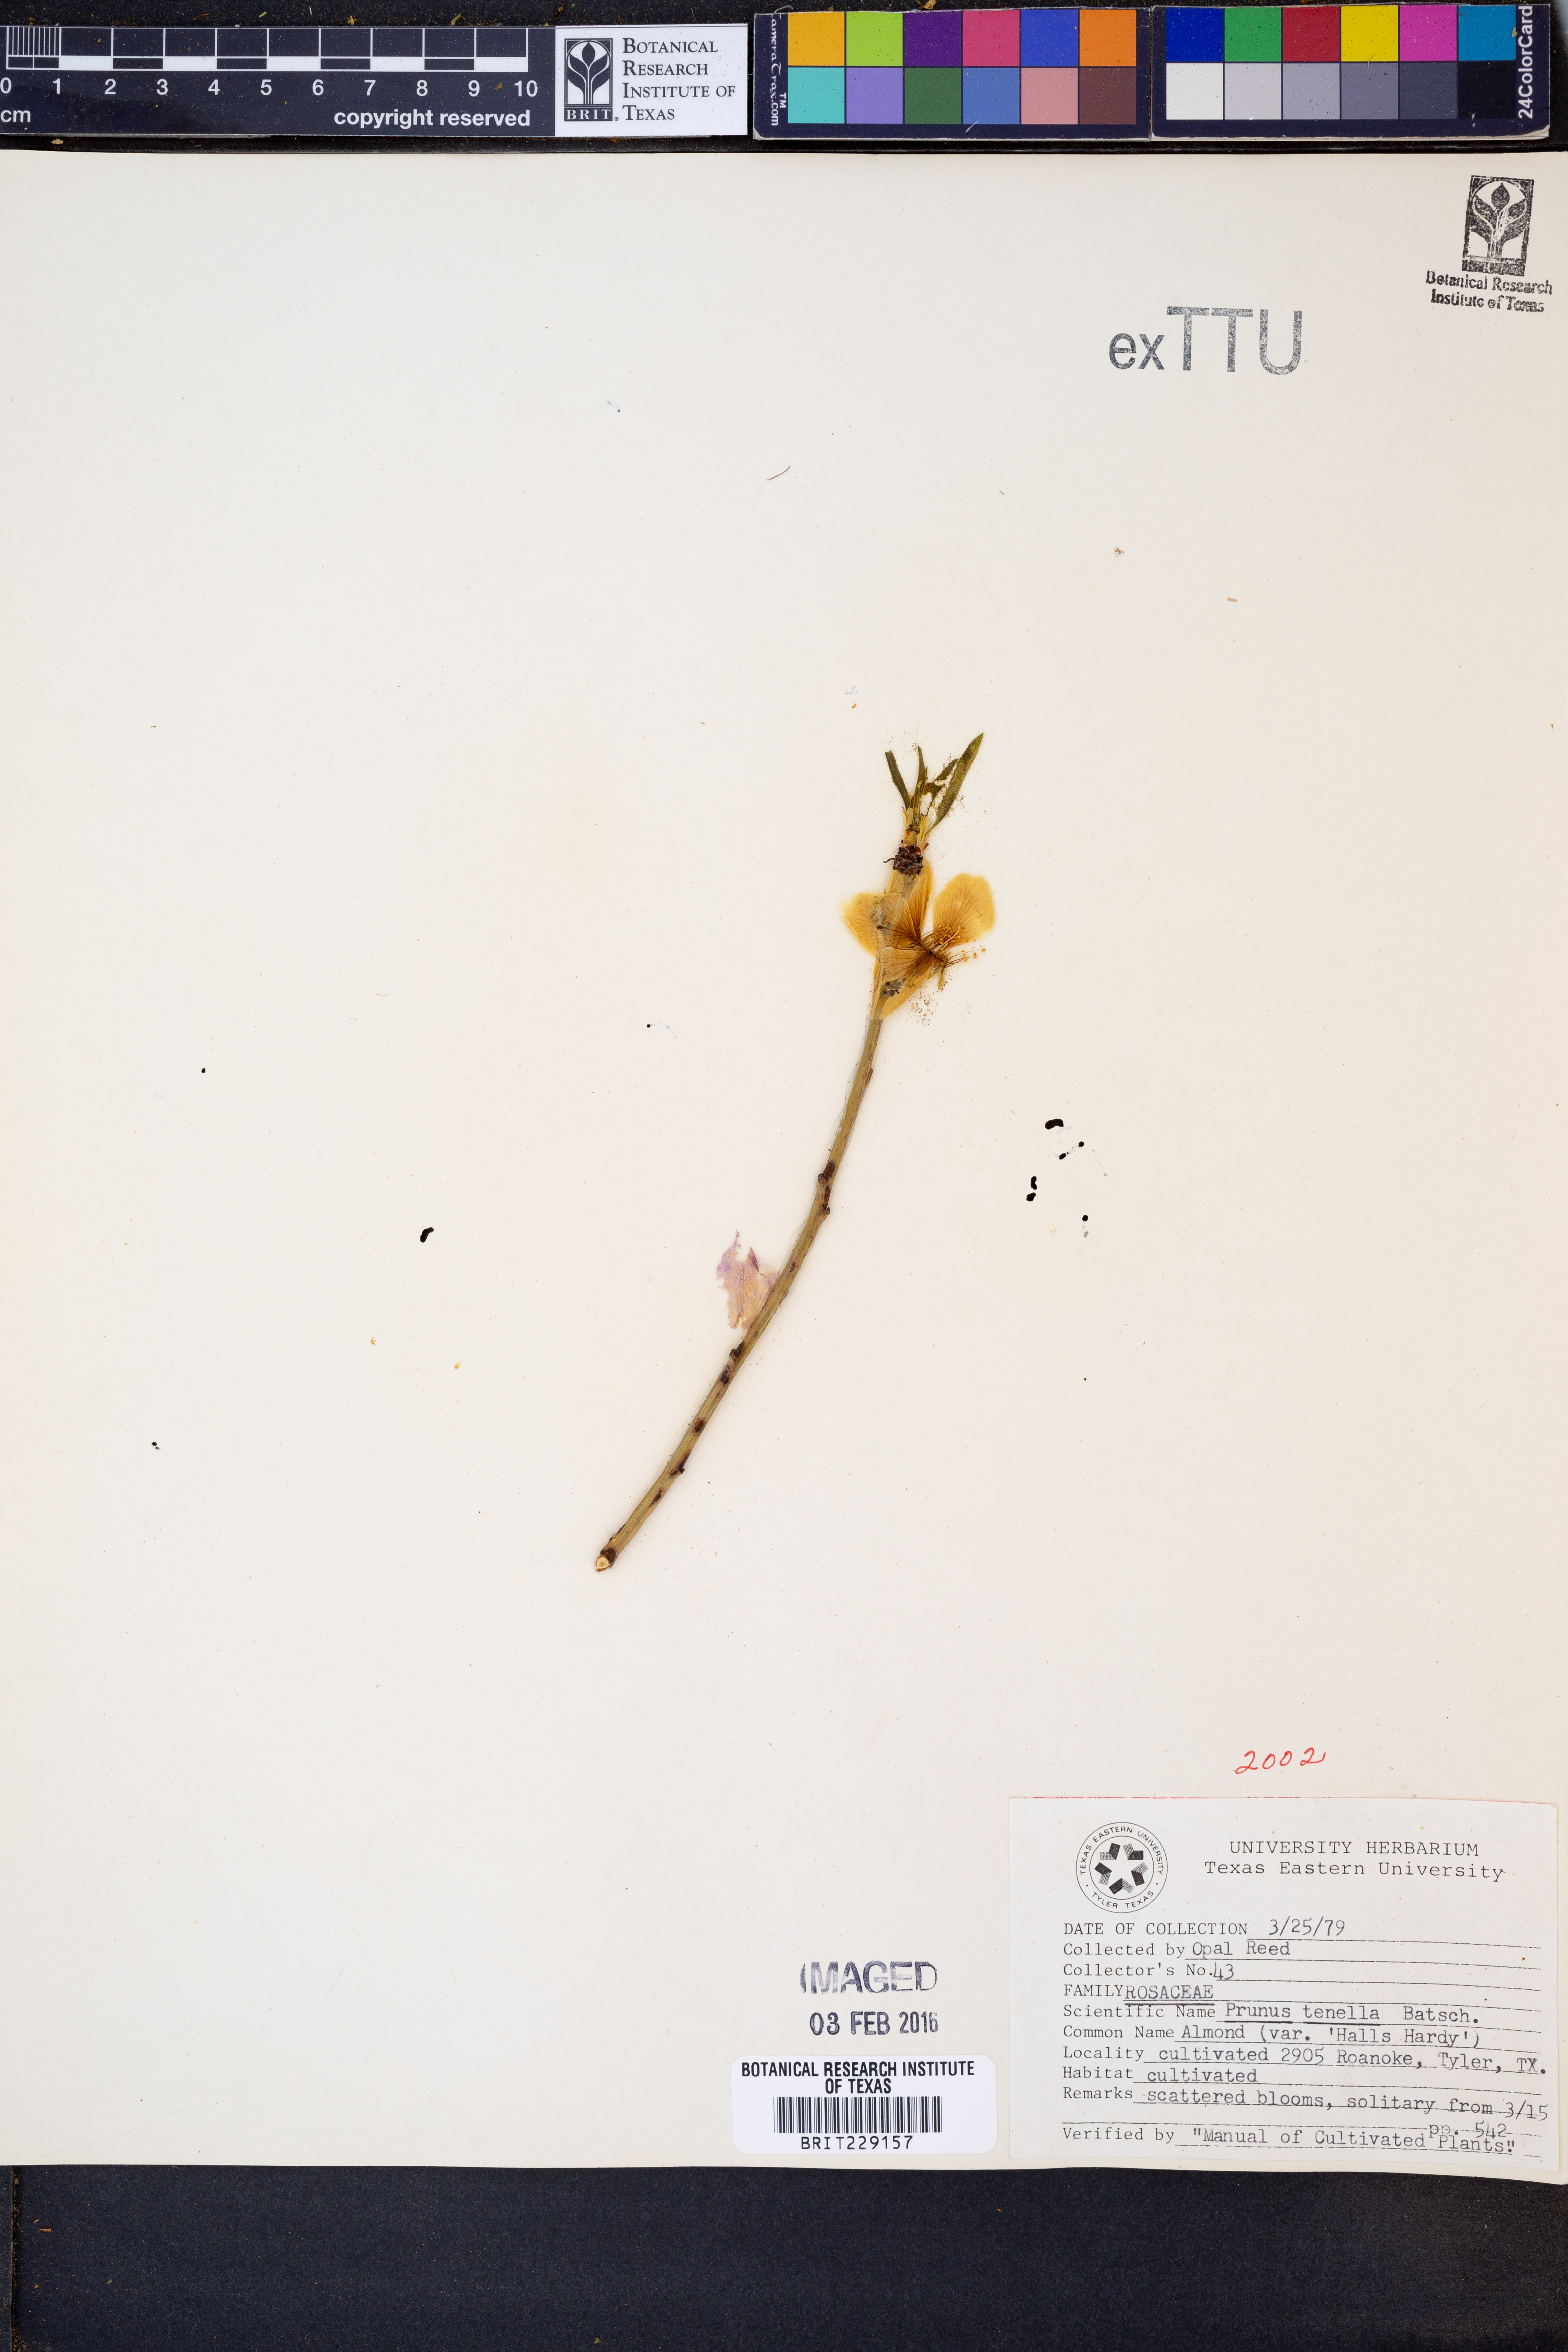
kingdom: Plantae
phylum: Tracheophyta
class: Magnoliopsida
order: Rosales
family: Rosaceae
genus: Prunus
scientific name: Prunus tenella
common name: Dwarf russian almond
